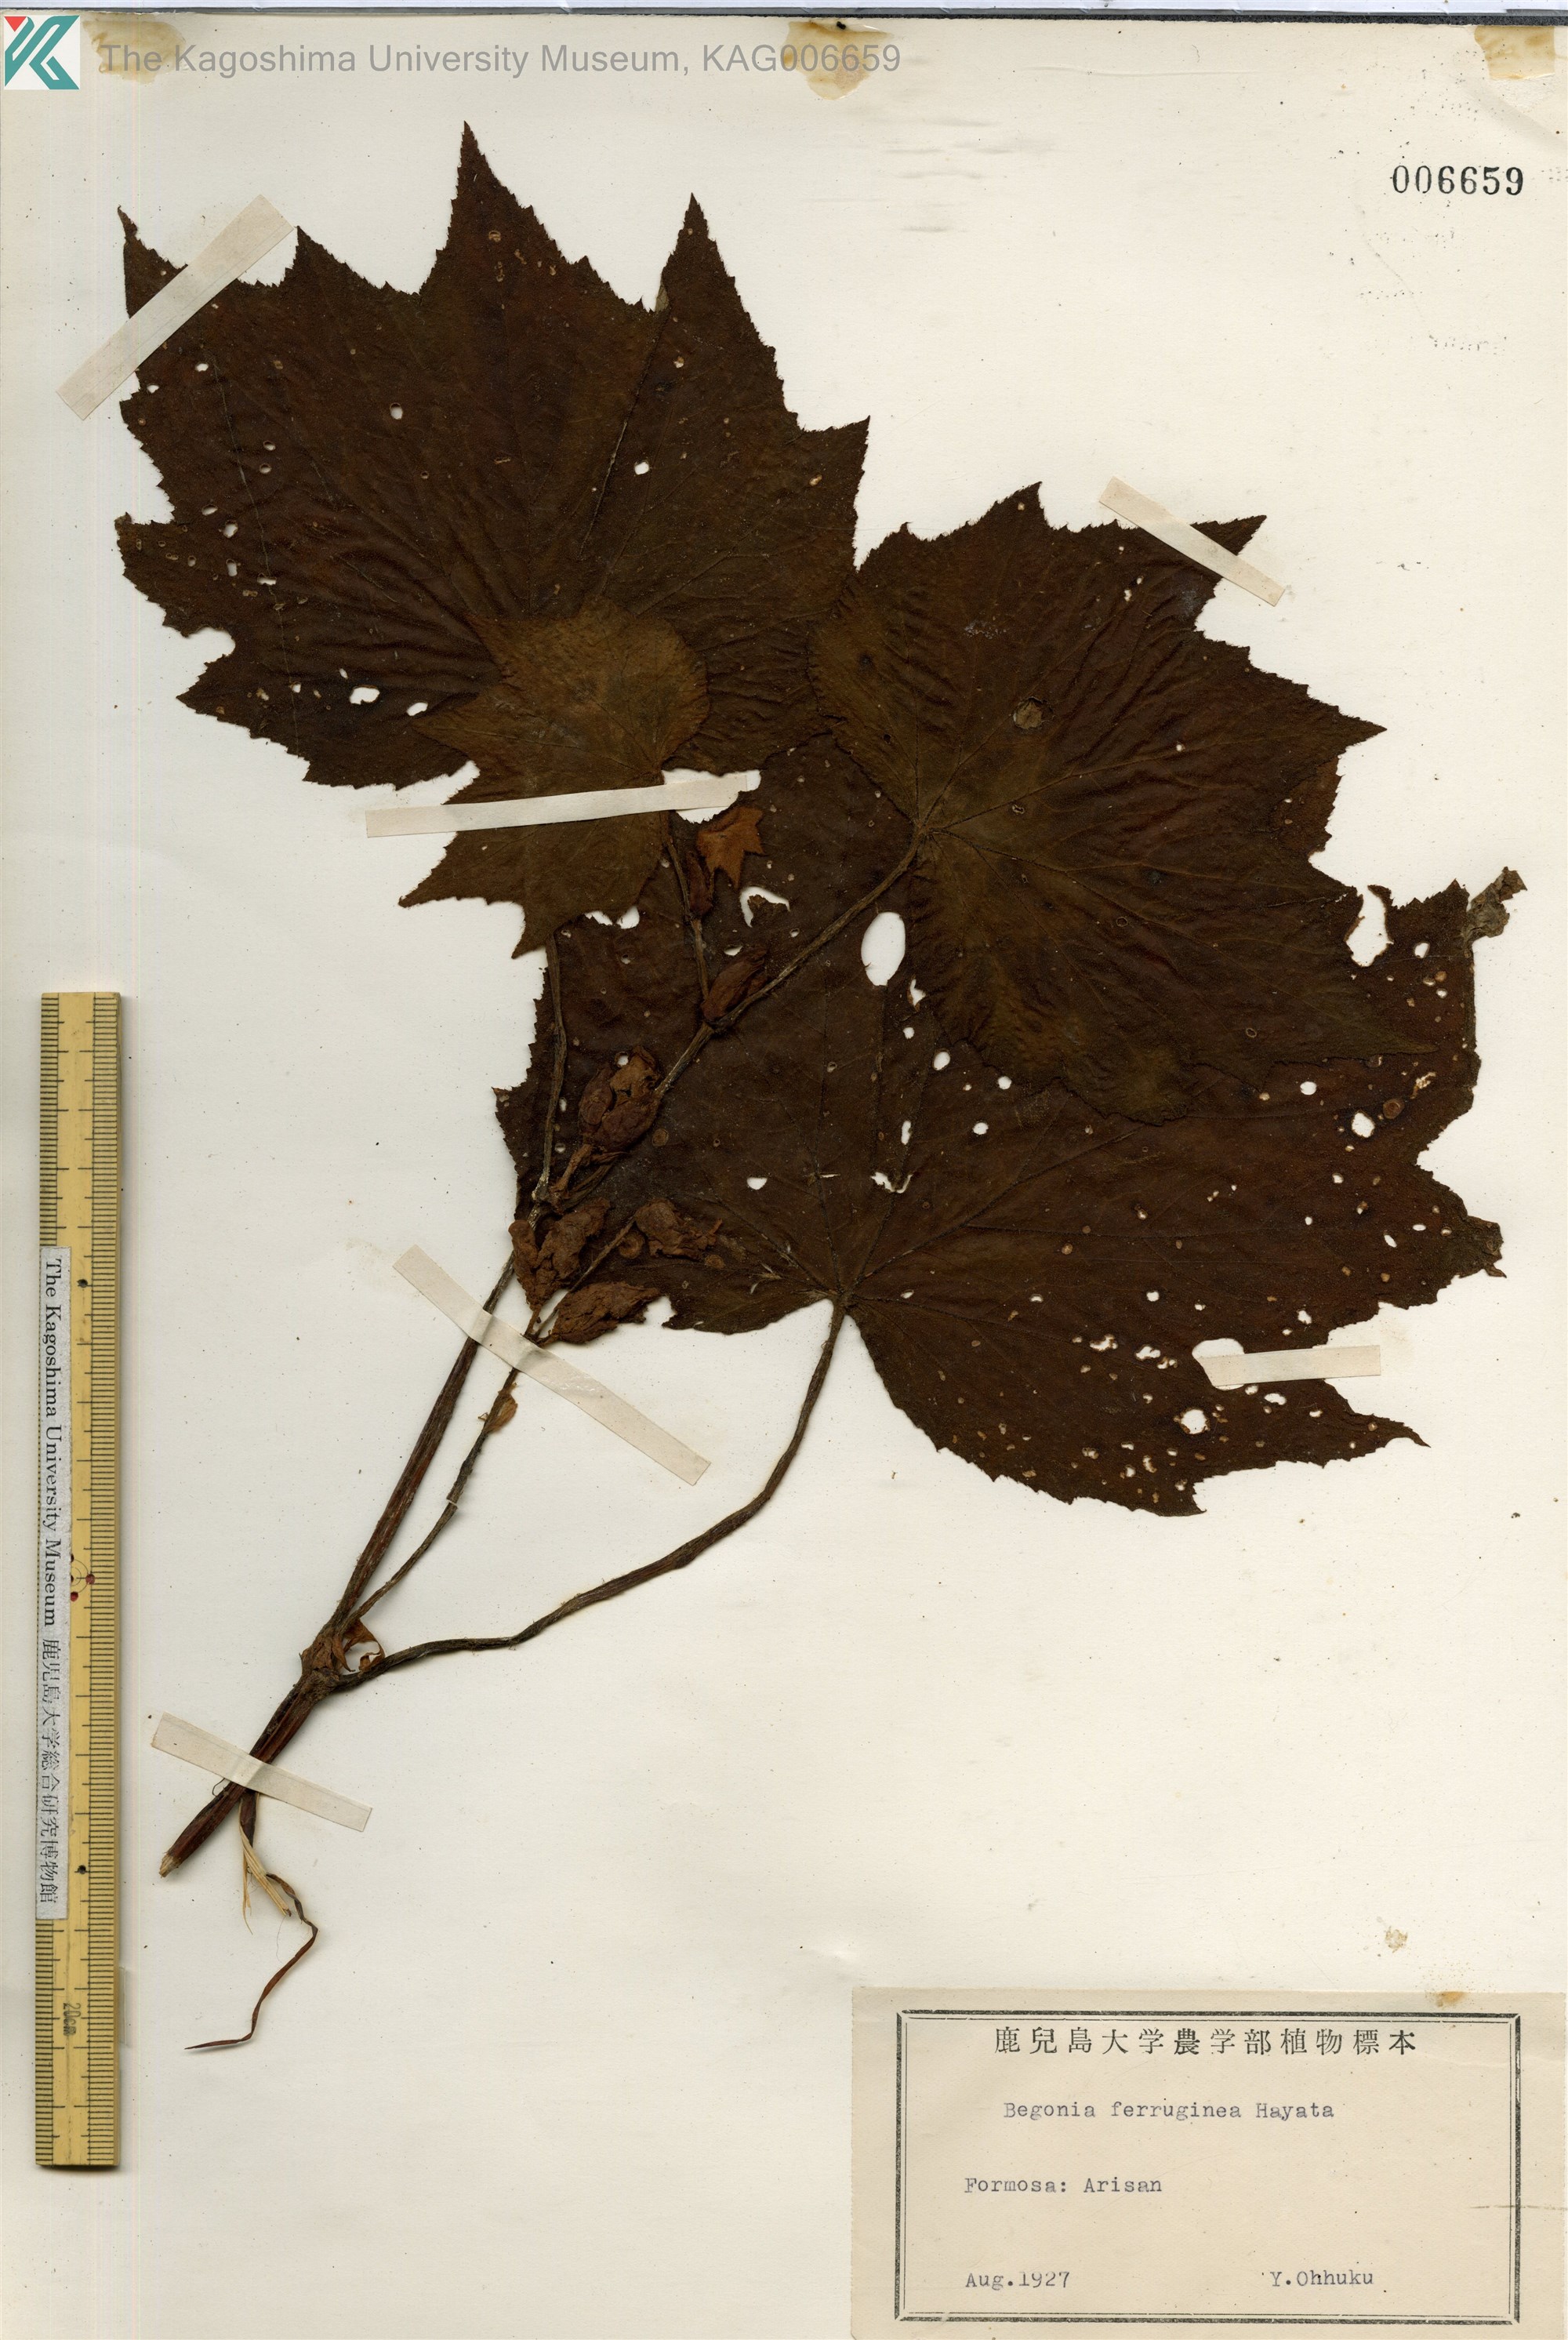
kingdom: Plantae
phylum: Tracheophyta
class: Magnoliopsida
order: Cucurbitales
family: Begoniaceae
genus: Begonia
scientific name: Begonia ferruginea
